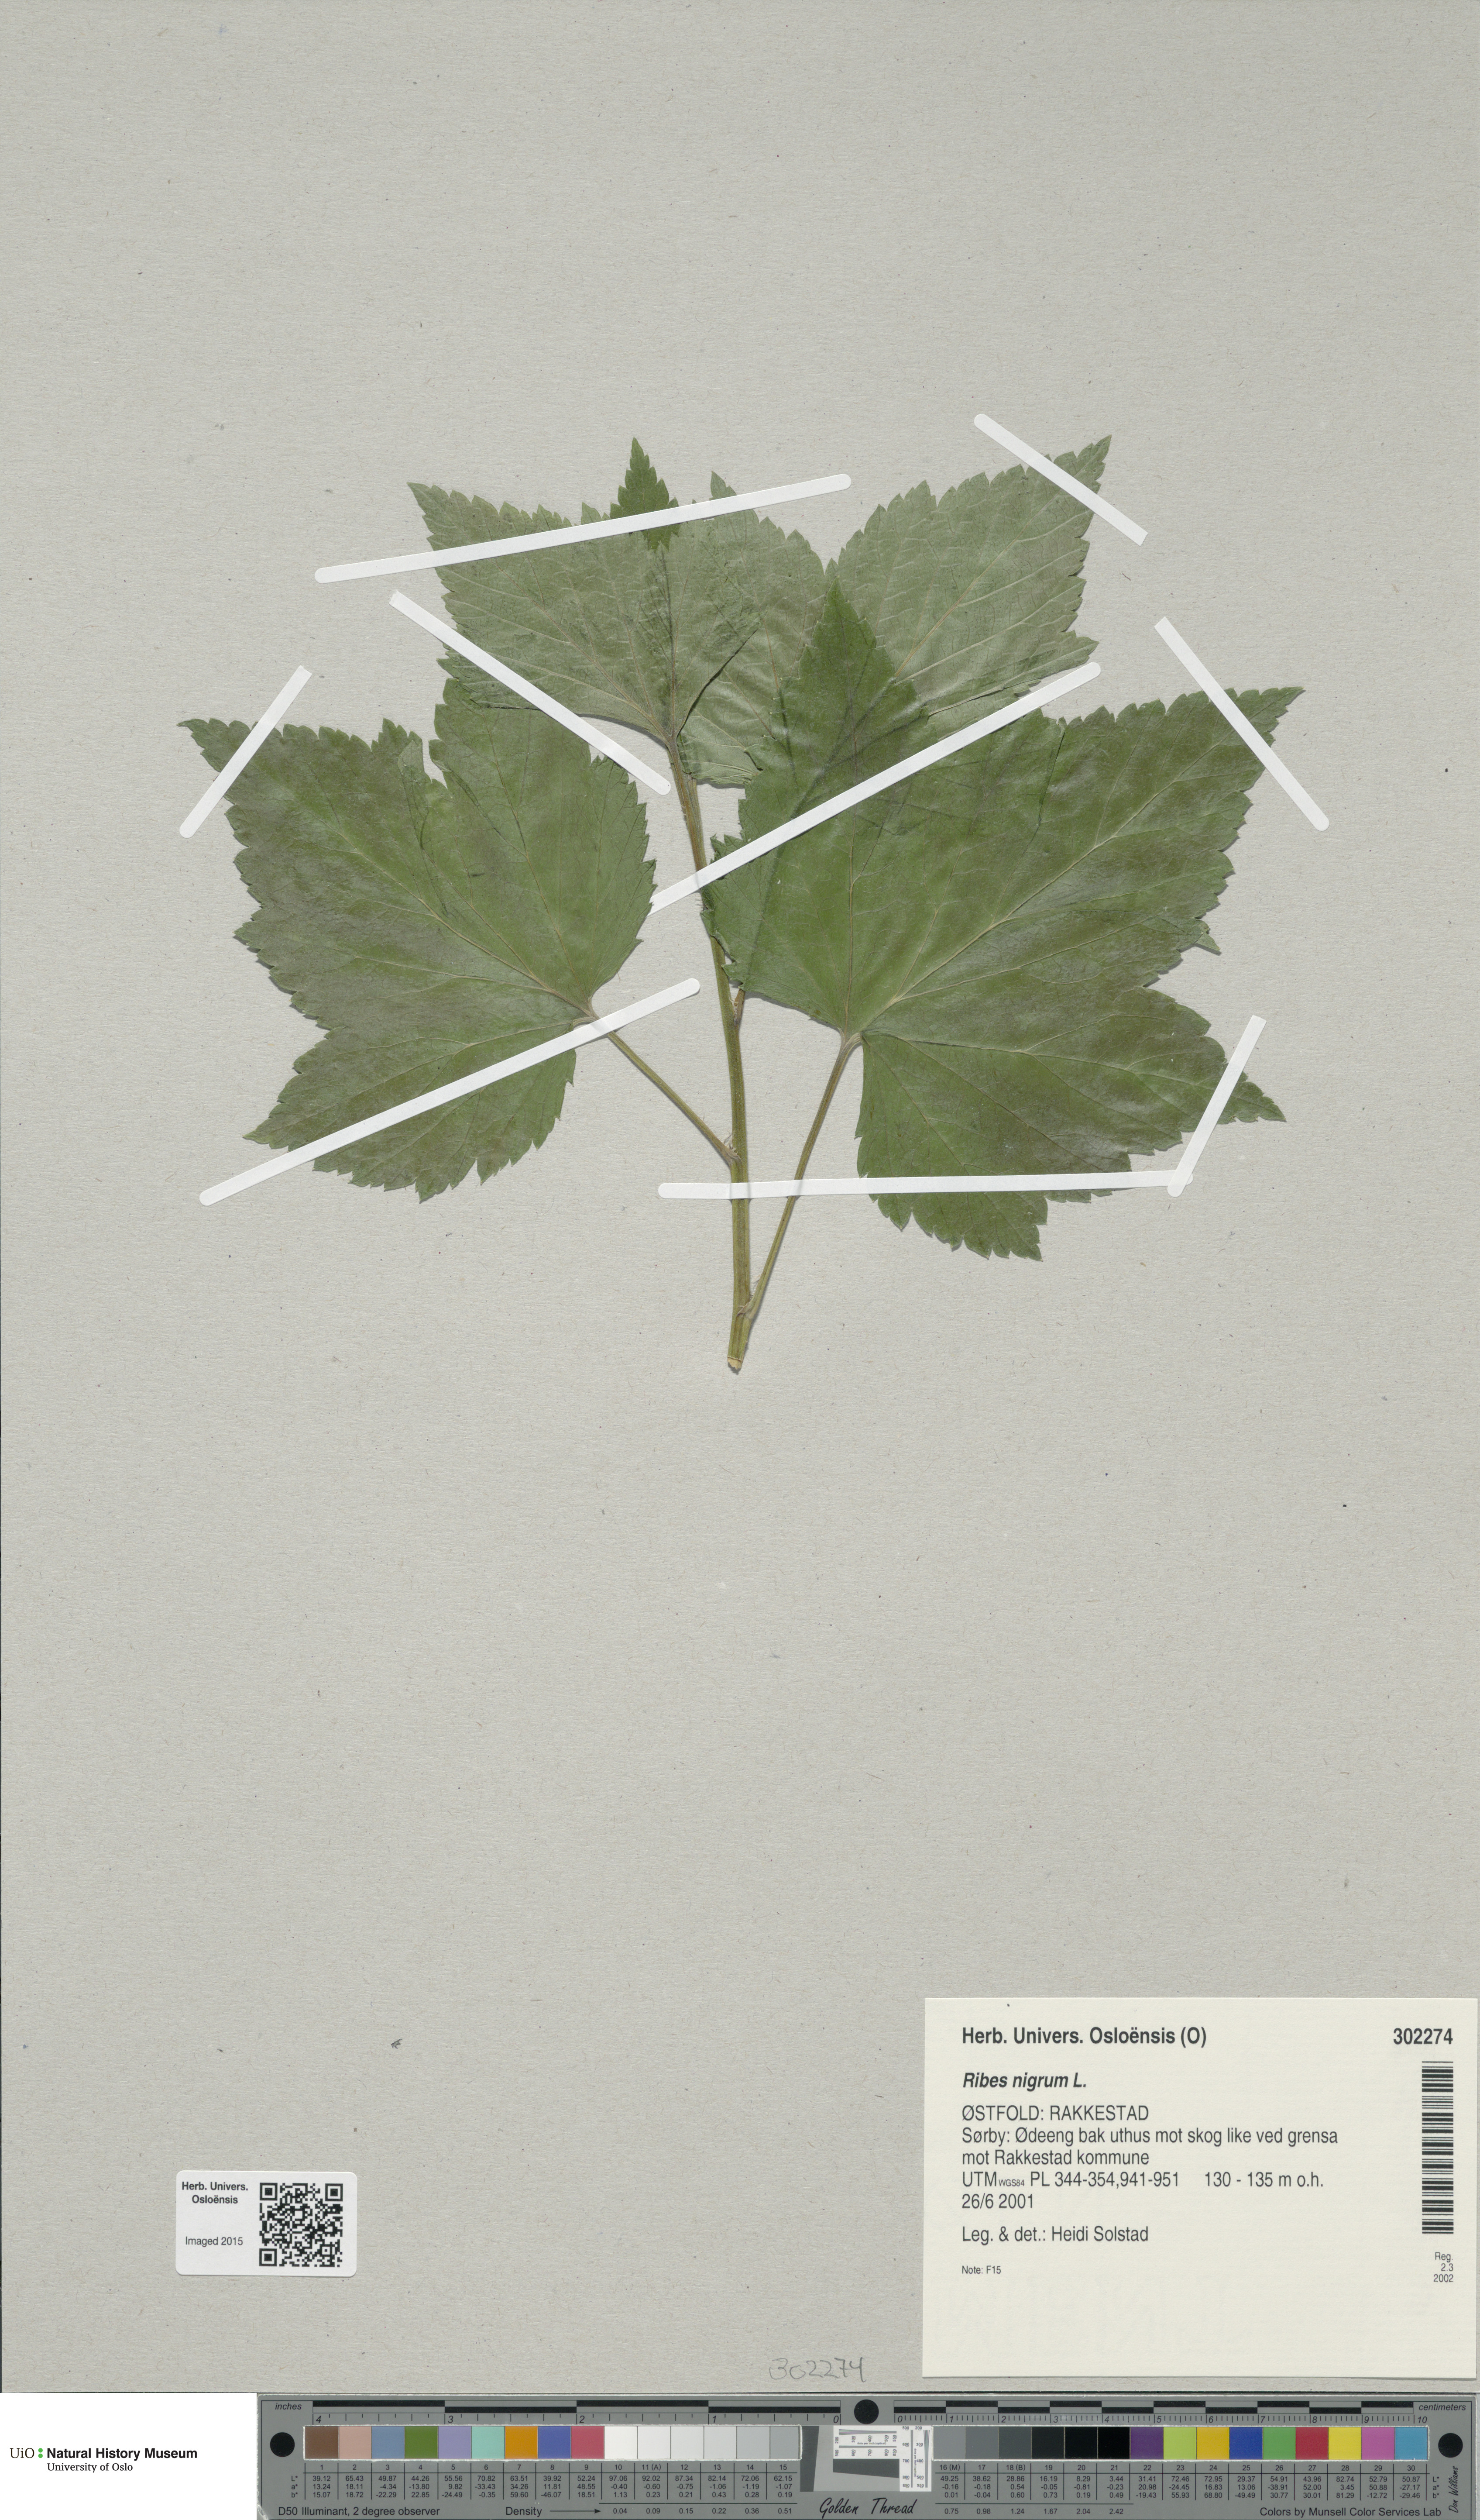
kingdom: Plantae
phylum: Tracheophyta
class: Magnoliopsida
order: Saxifragales
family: Grossulariaceae
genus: Ribes
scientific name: Ribes nigrum
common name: Black currant
